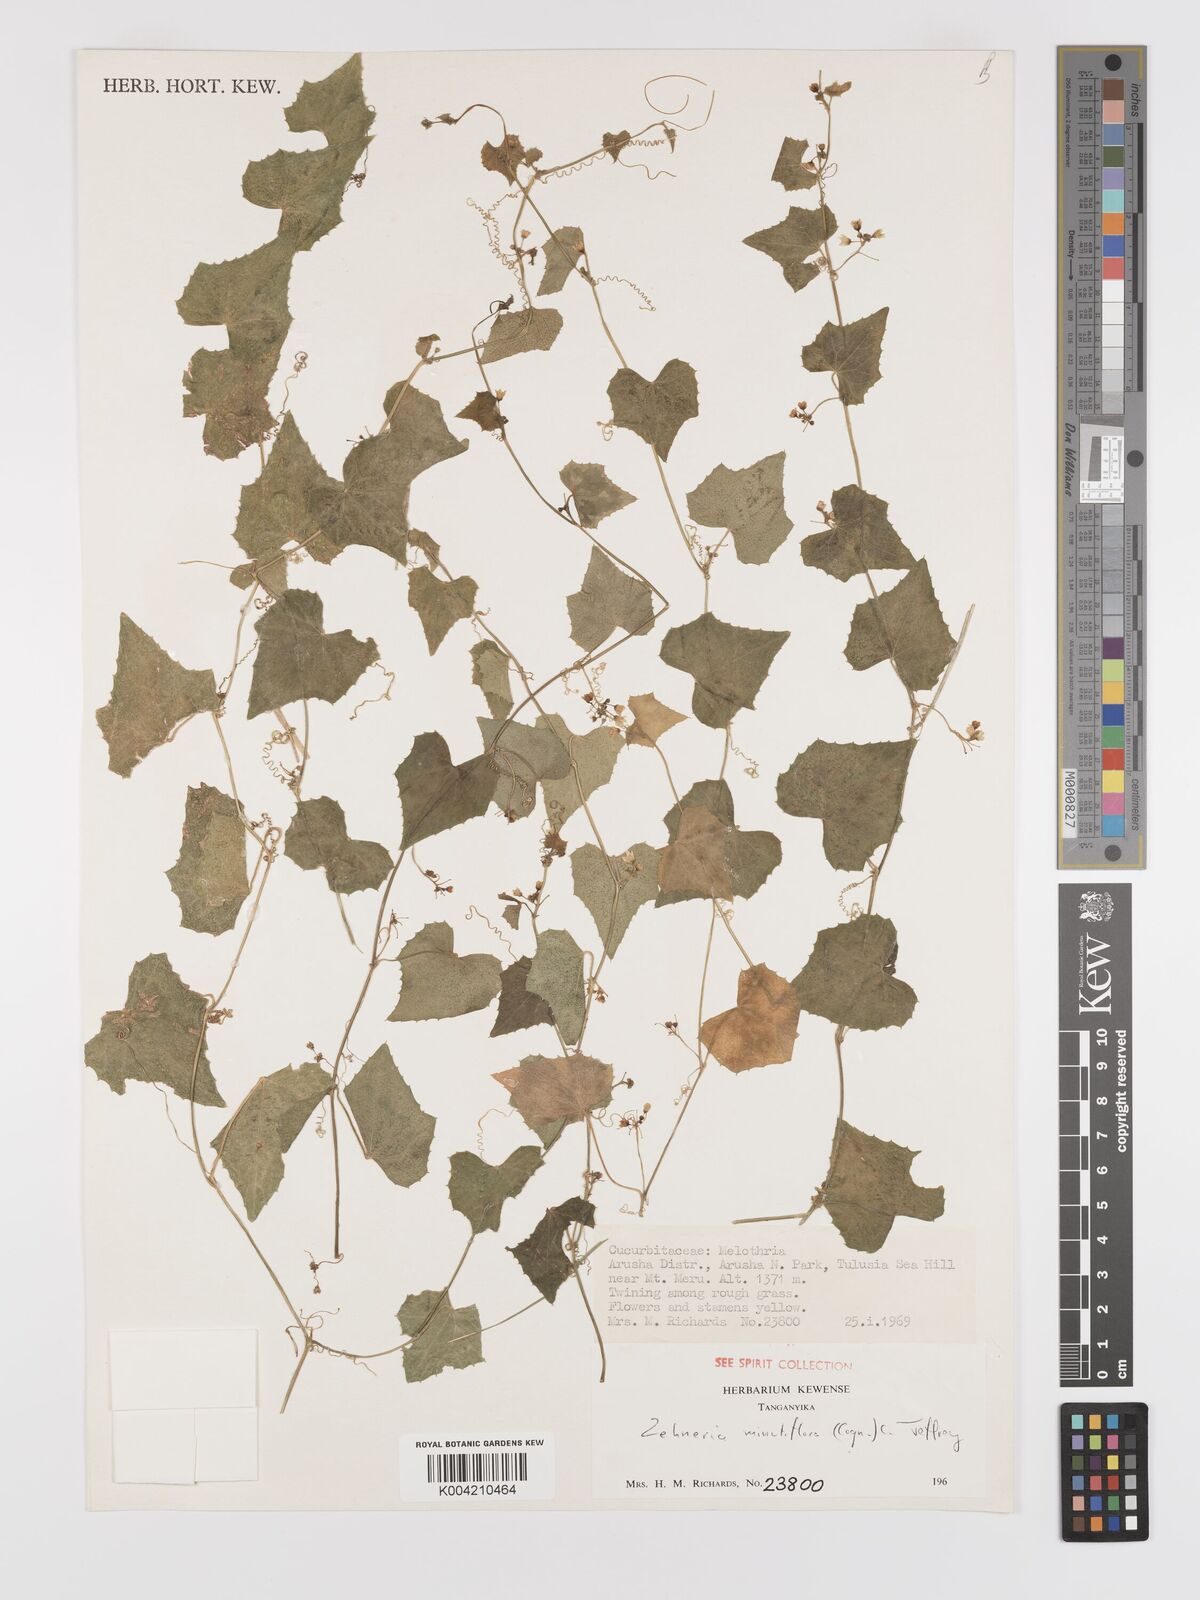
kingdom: Plantae
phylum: Tracheophyta
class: Magnoliopsida
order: Cucurbitales
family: Cucurbitaceae
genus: Zehneria
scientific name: Zehneria minutiflora
